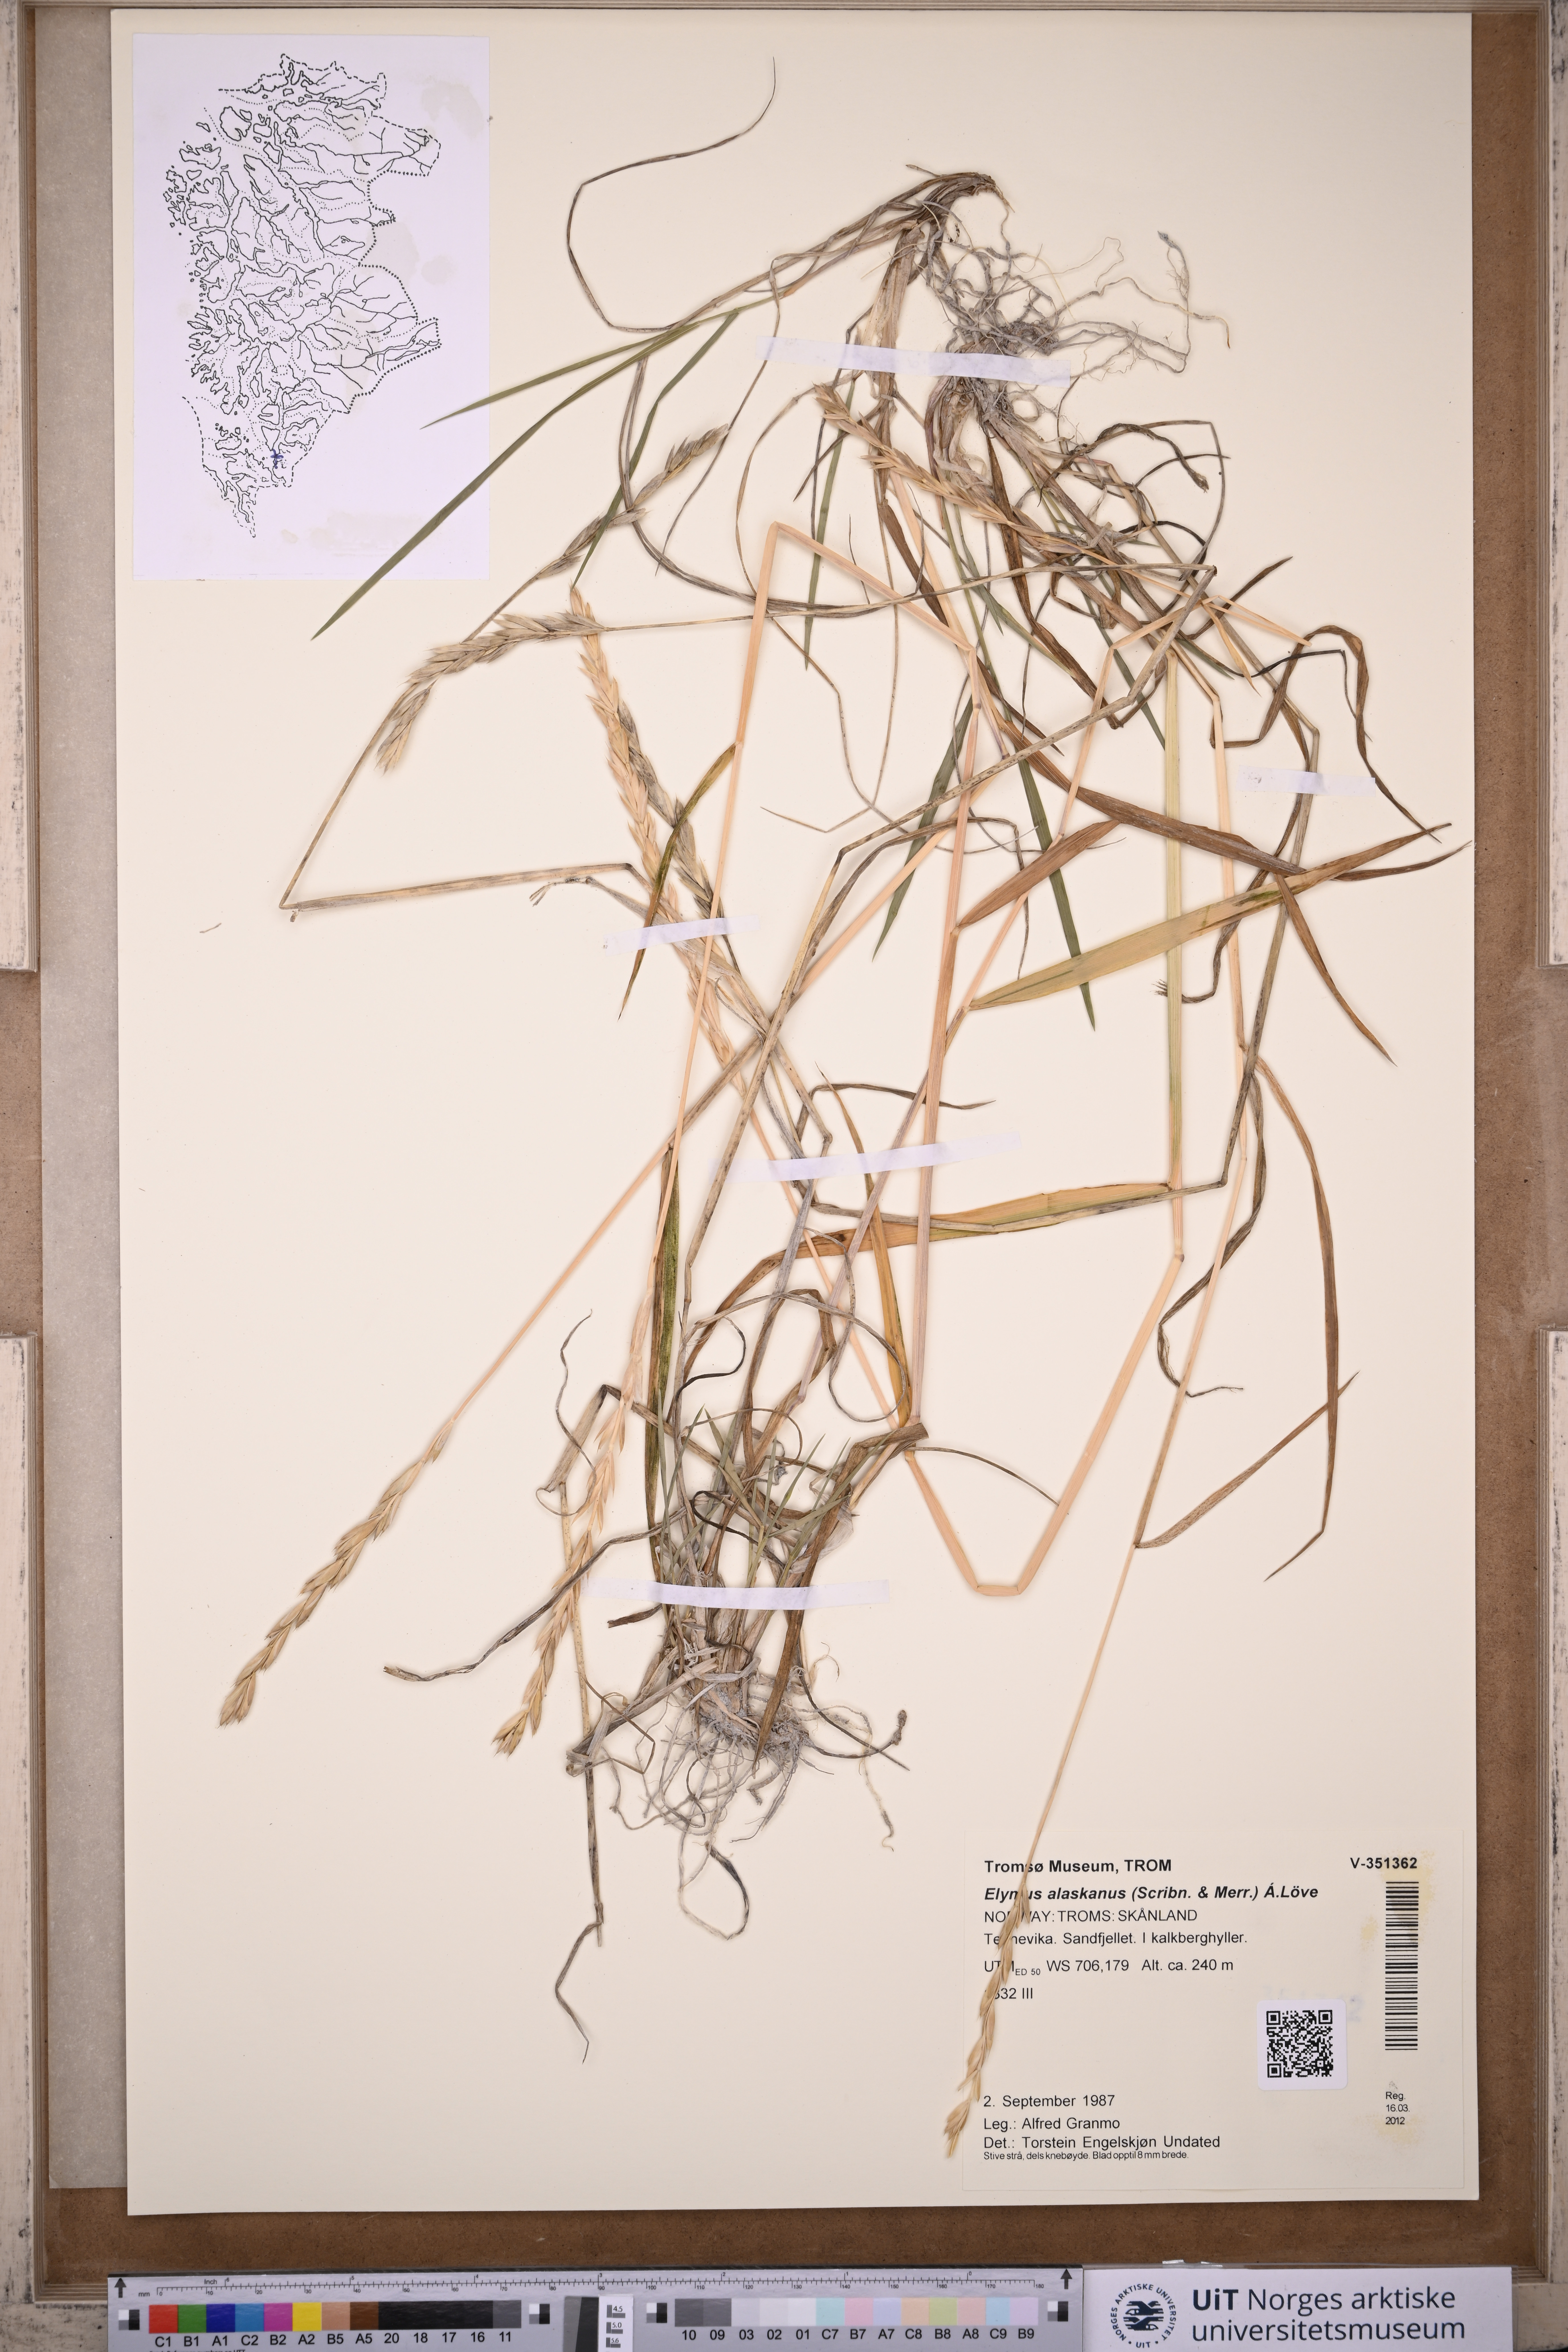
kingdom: Plantae
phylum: Tracheophyta
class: Liliopsida
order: Poales
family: Poaceae
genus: Elymus
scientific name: Elymus alaskanus
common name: Alaska wheatgrass
